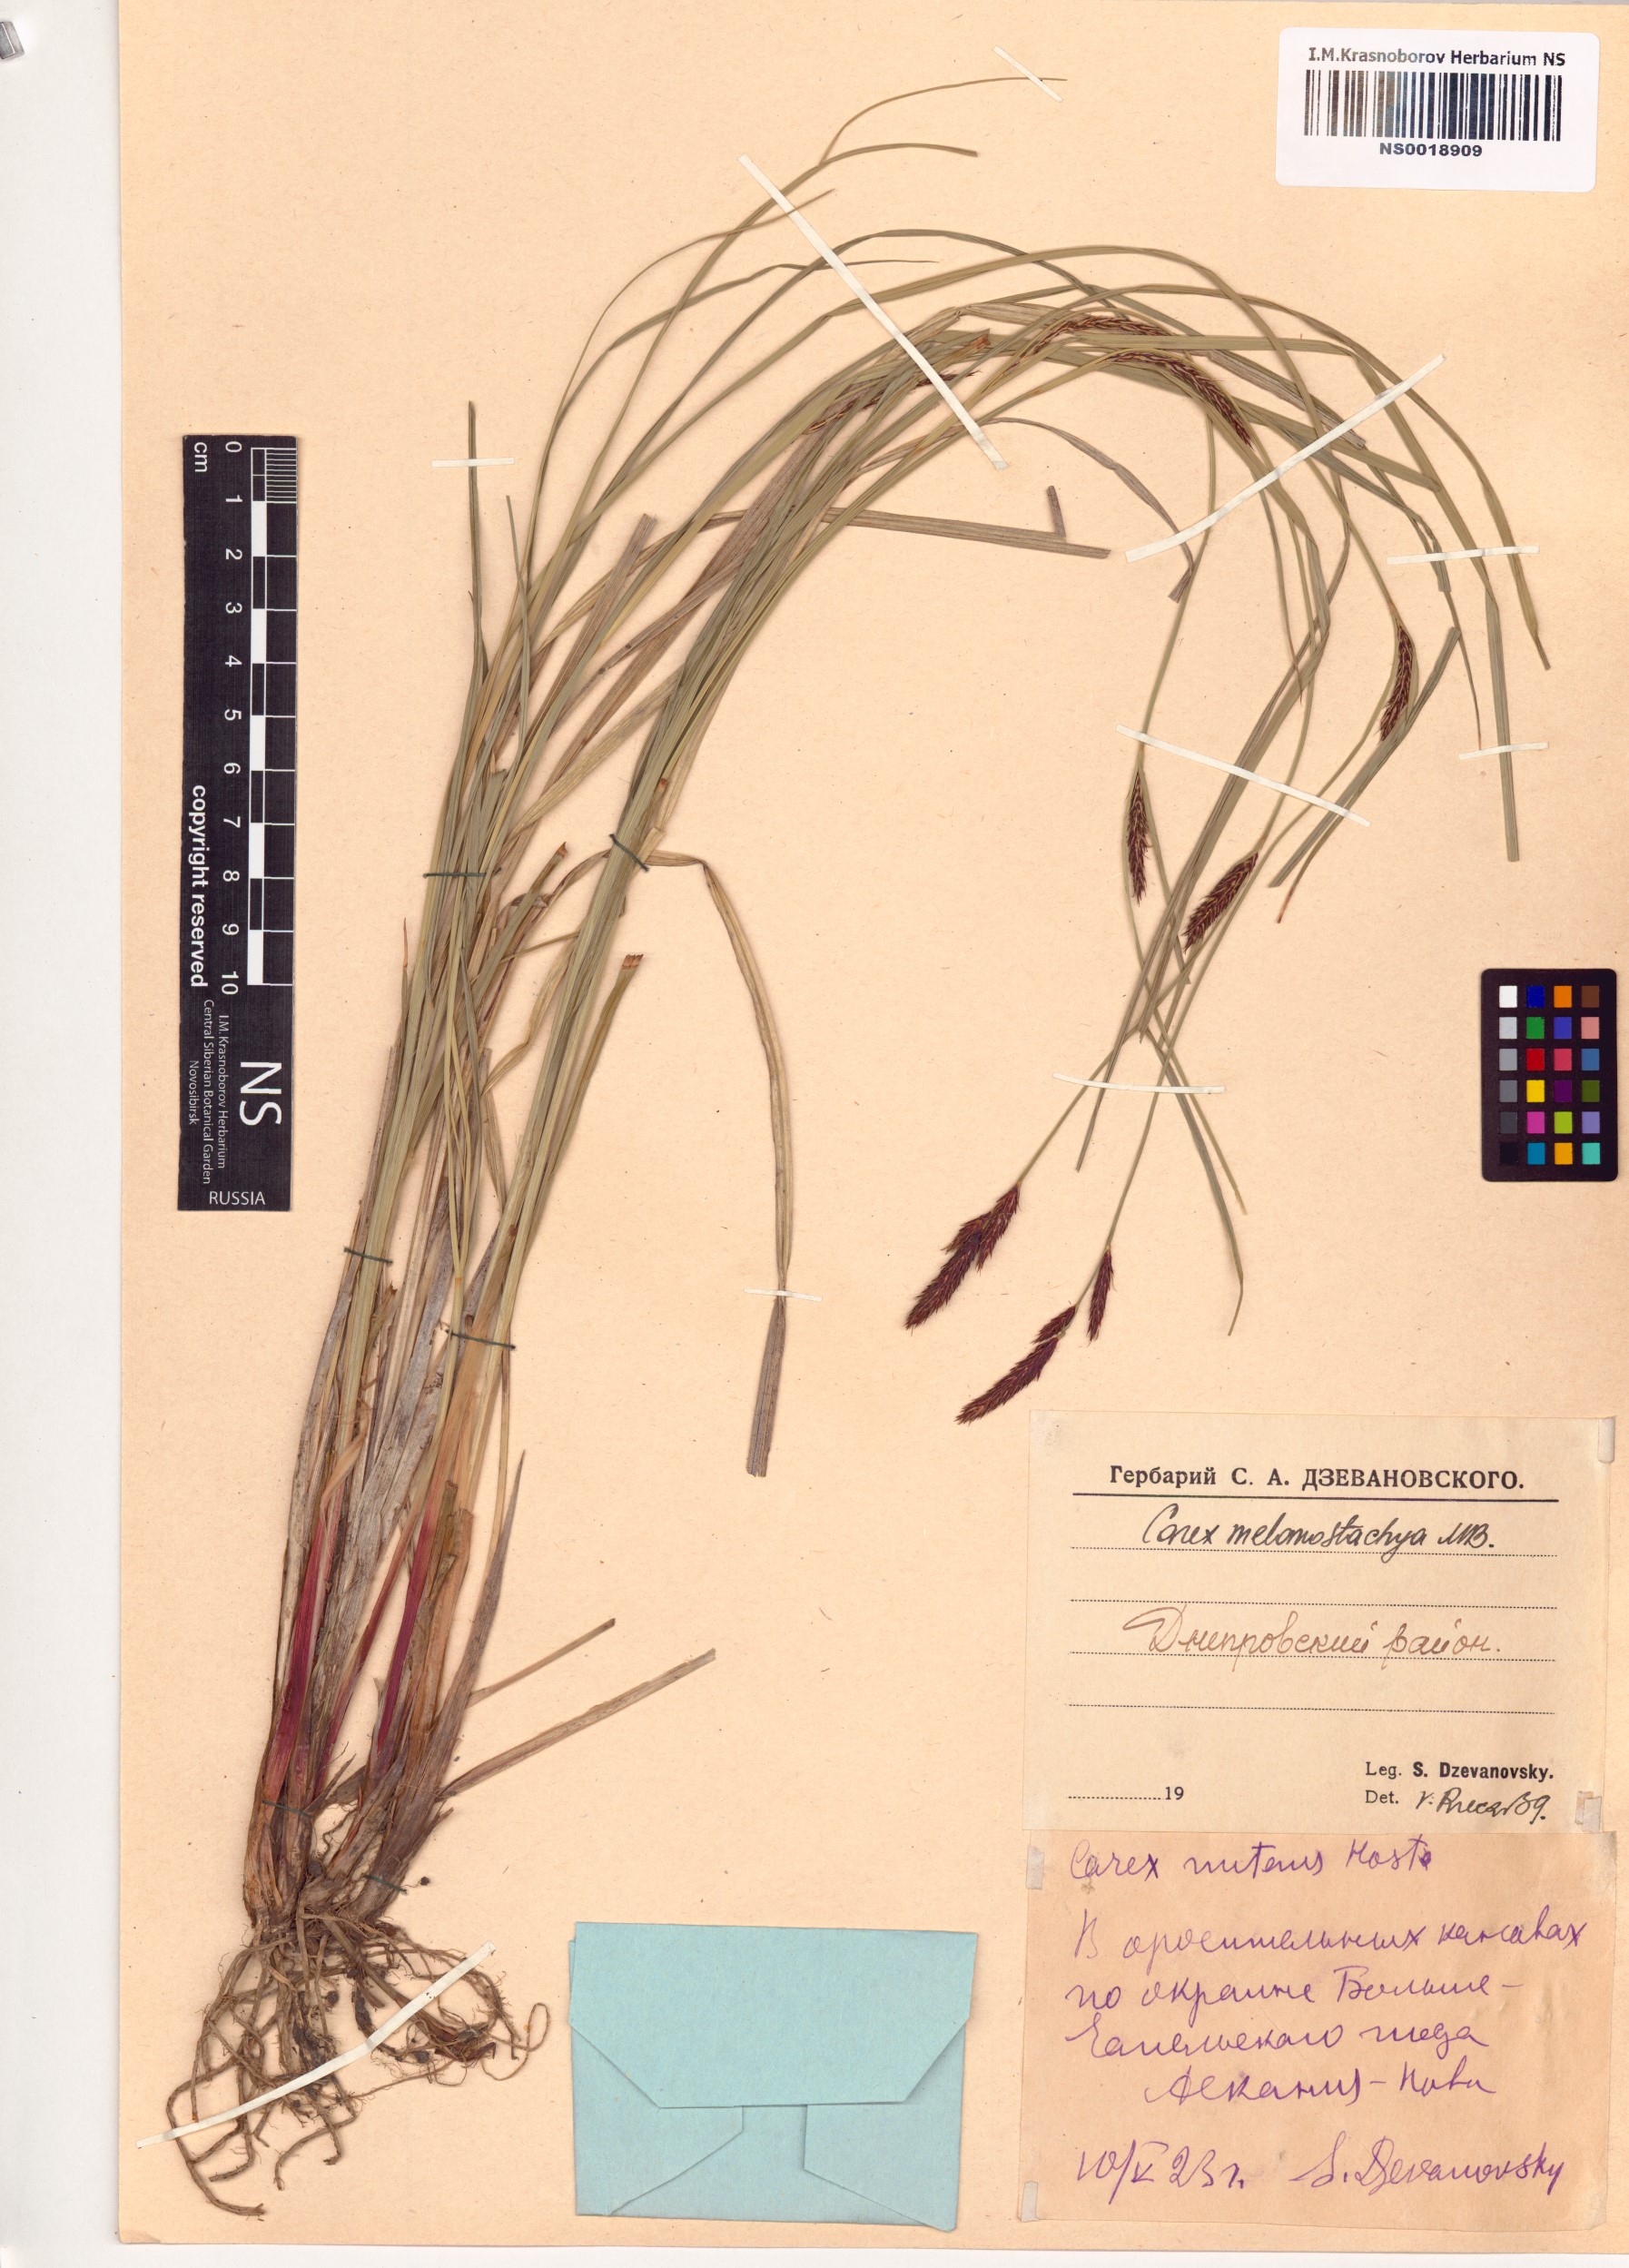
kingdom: Plantae
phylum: Tracheophyta
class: Liliopsida
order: Poales
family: Cyperaceae
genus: Carex
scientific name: Carex melanostachya
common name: Black-spiked sedge
